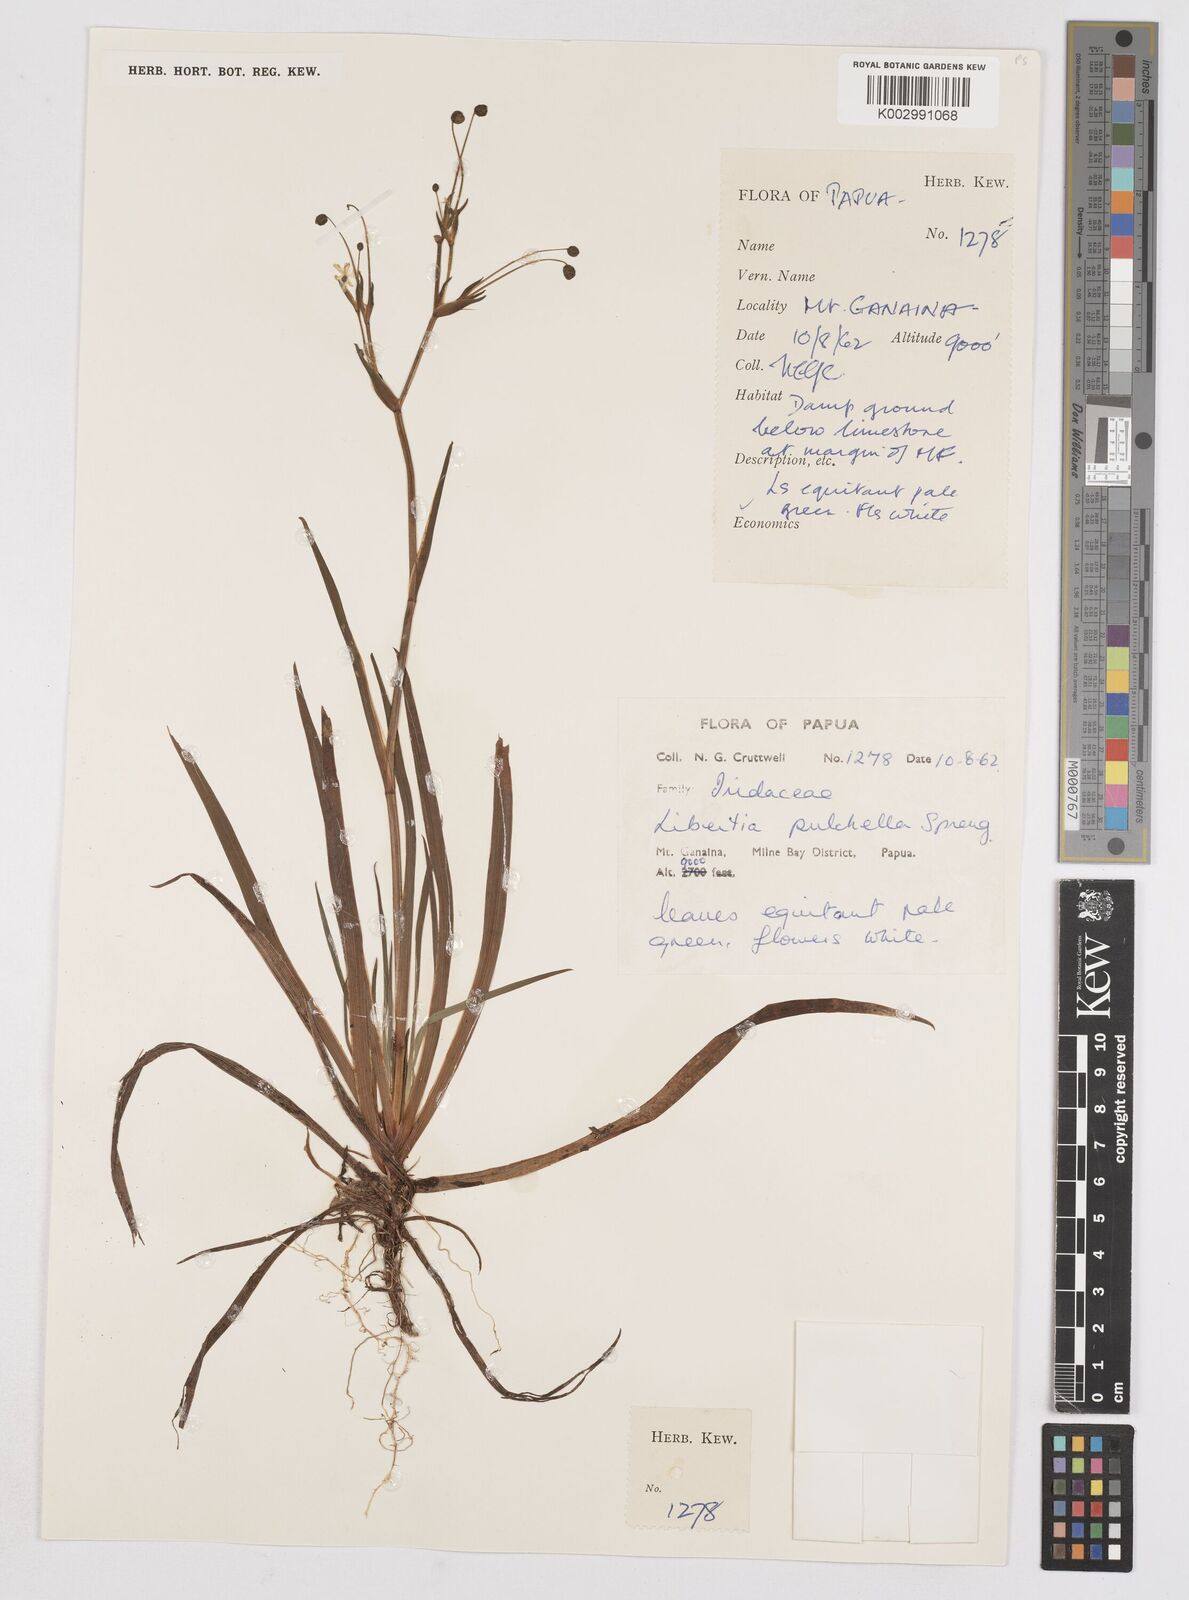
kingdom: Plantae
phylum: Tracheophyta
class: Liliopsida
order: Asparagales
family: Iridaceae
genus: Libertia
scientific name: Libertia pulchella
